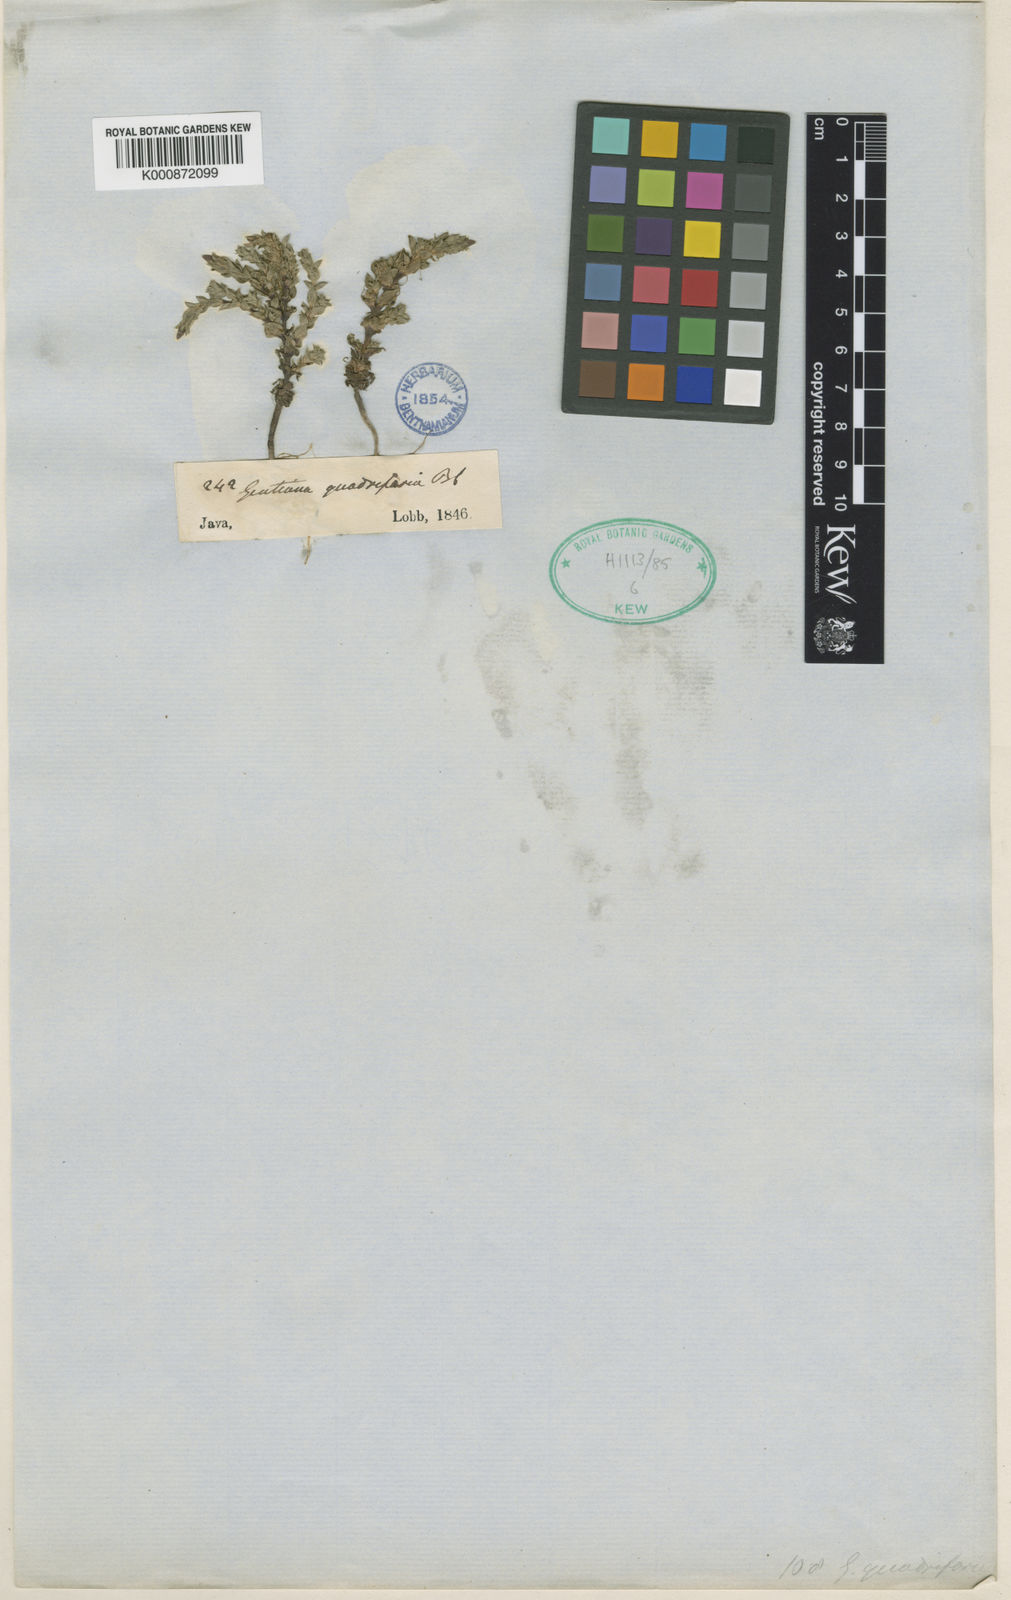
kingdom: Plantae
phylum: Tracheophyta
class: Magnoliopsida
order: Gentianales
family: Gentianaceae
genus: Gentiana
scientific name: Gentiana quadrifaria
